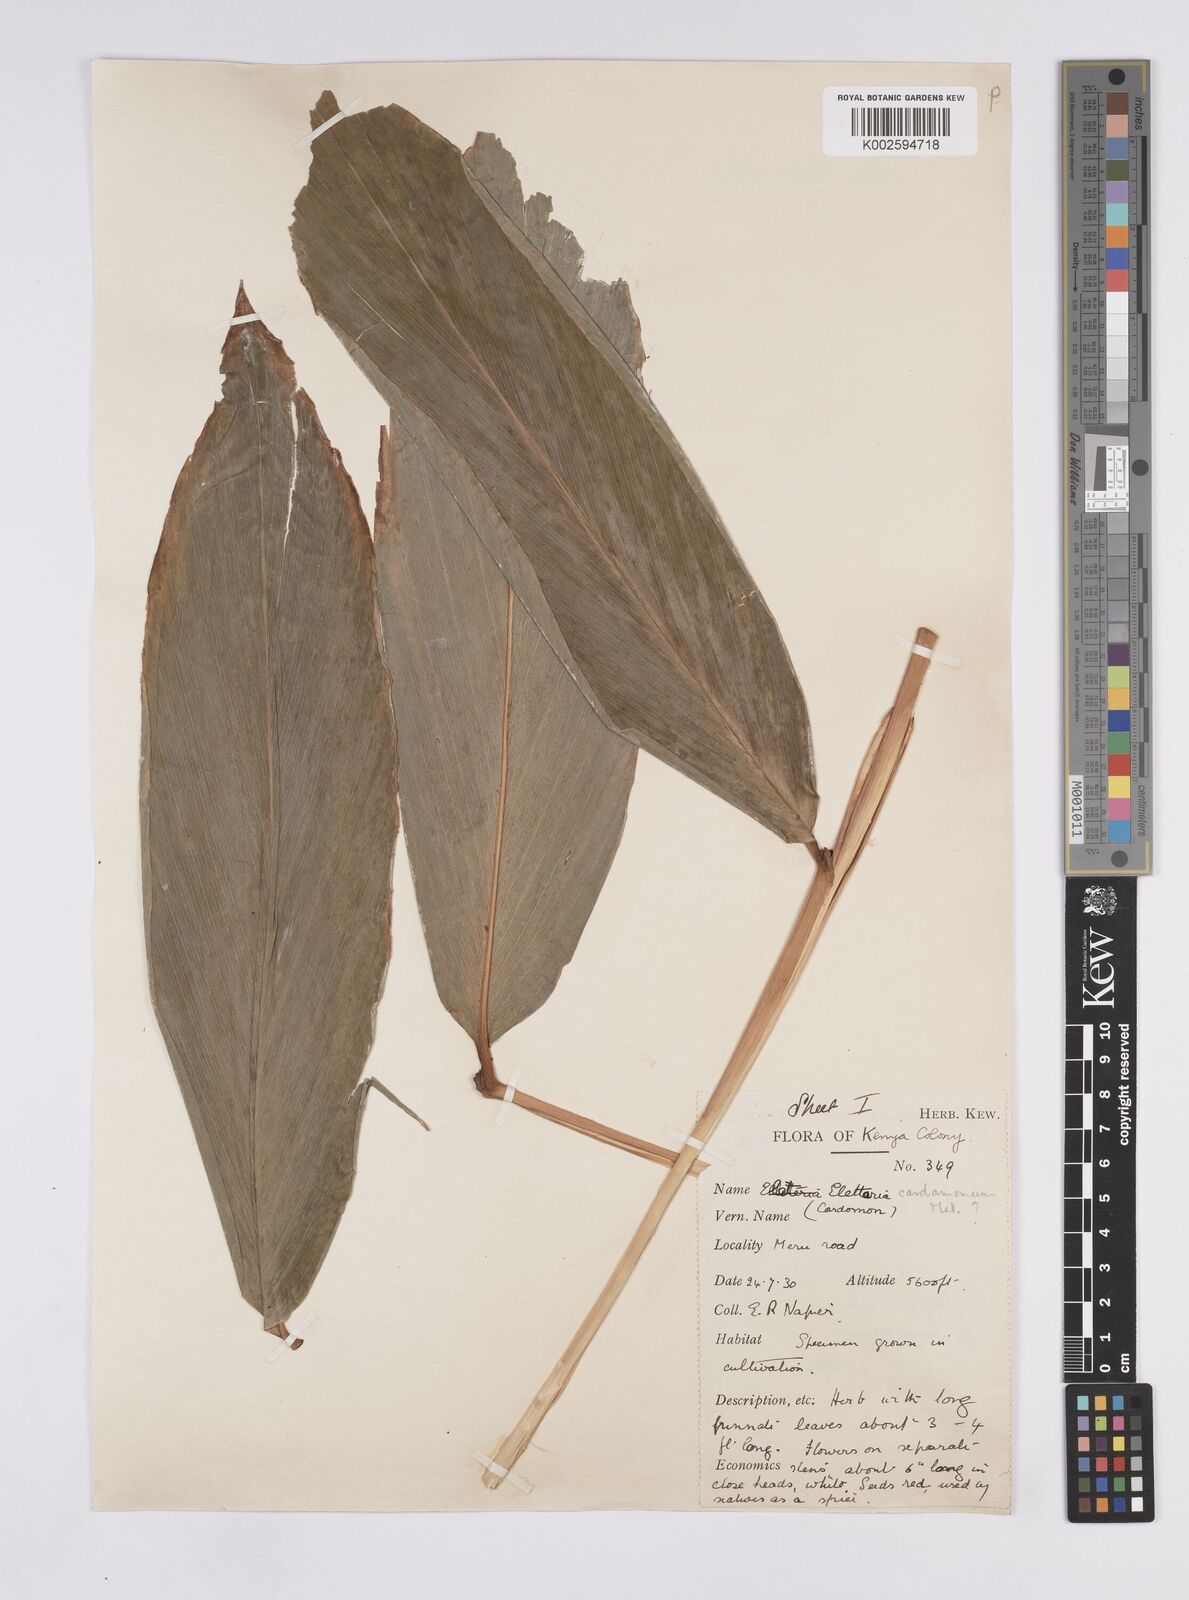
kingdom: Plantae
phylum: Tracheophyta
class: Liliopsida
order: Zingiberales
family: Zingiberaceae
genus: Elettaria
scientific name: Elettaria cardamomum
